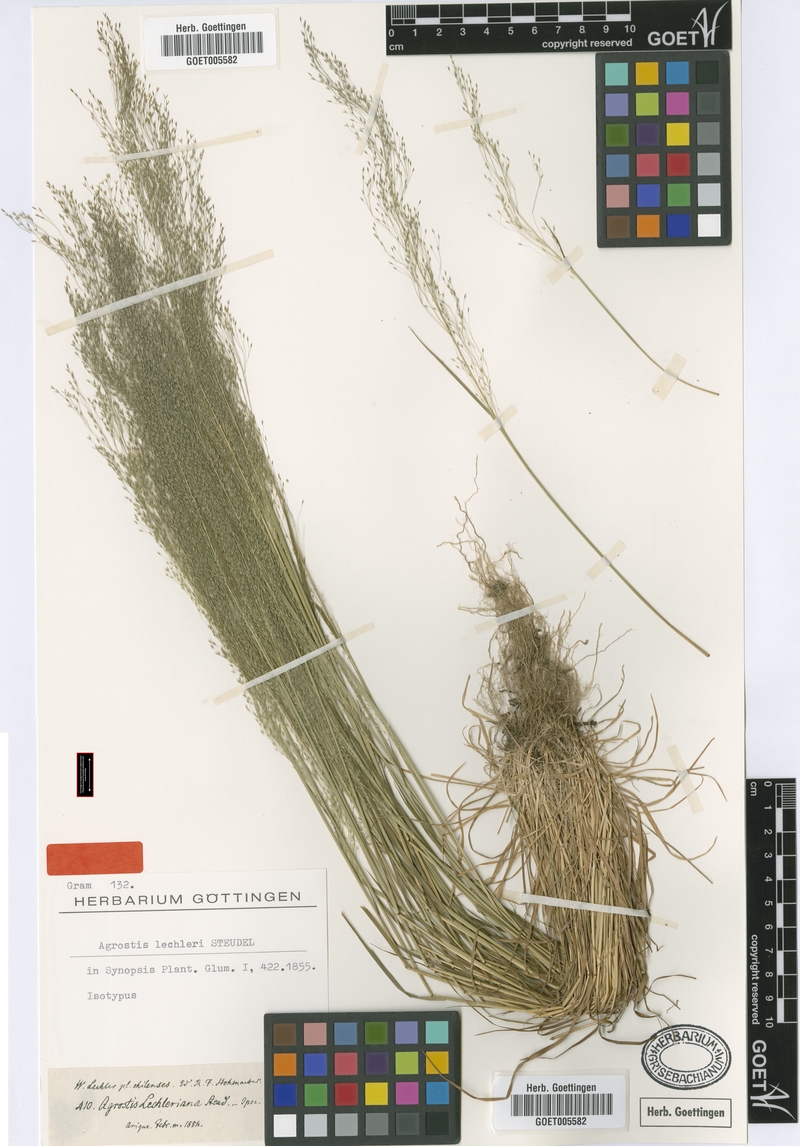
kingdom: Plantae
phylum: Tracheophyta
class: Liliopsida
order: Poales
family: Poaceae
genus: Agrostis
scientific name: Agrostis leptotricha
